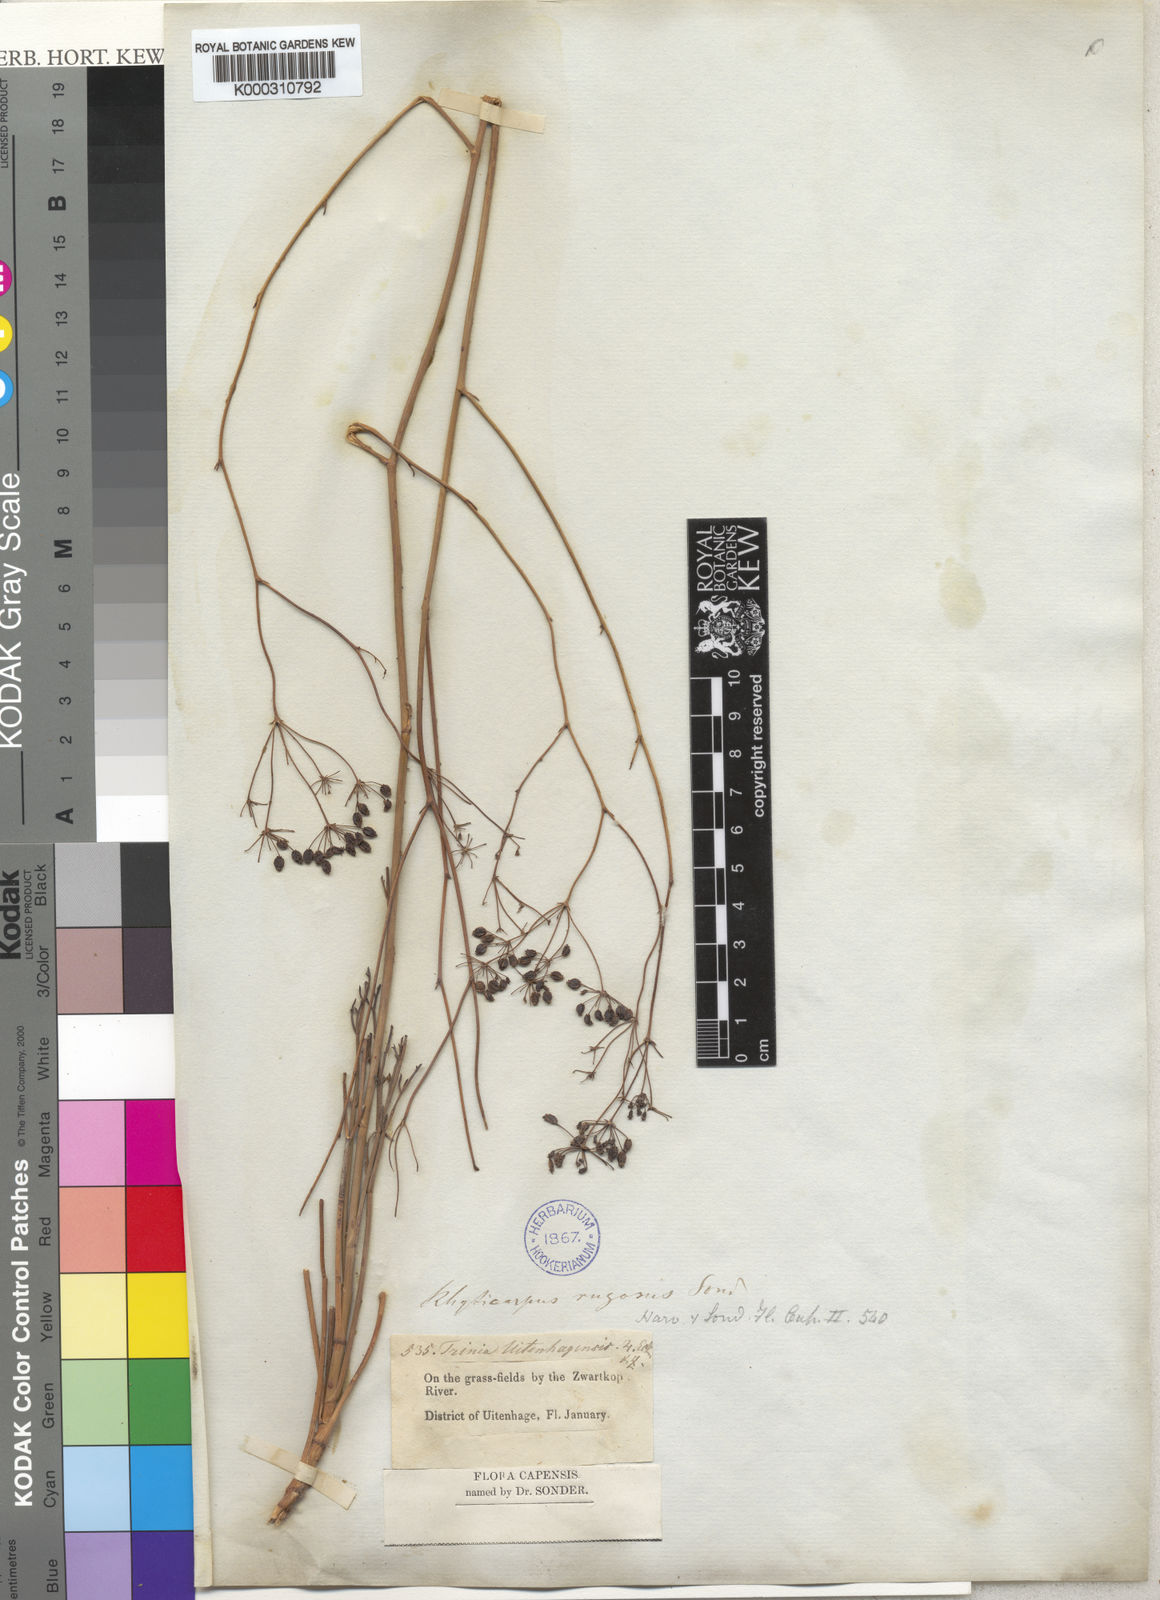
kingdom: Plantae
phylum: Tracheophyta
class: Magnoliopsida
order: Apiales
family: Apiaceae
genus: Anginon
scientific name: Anginon rugosum
